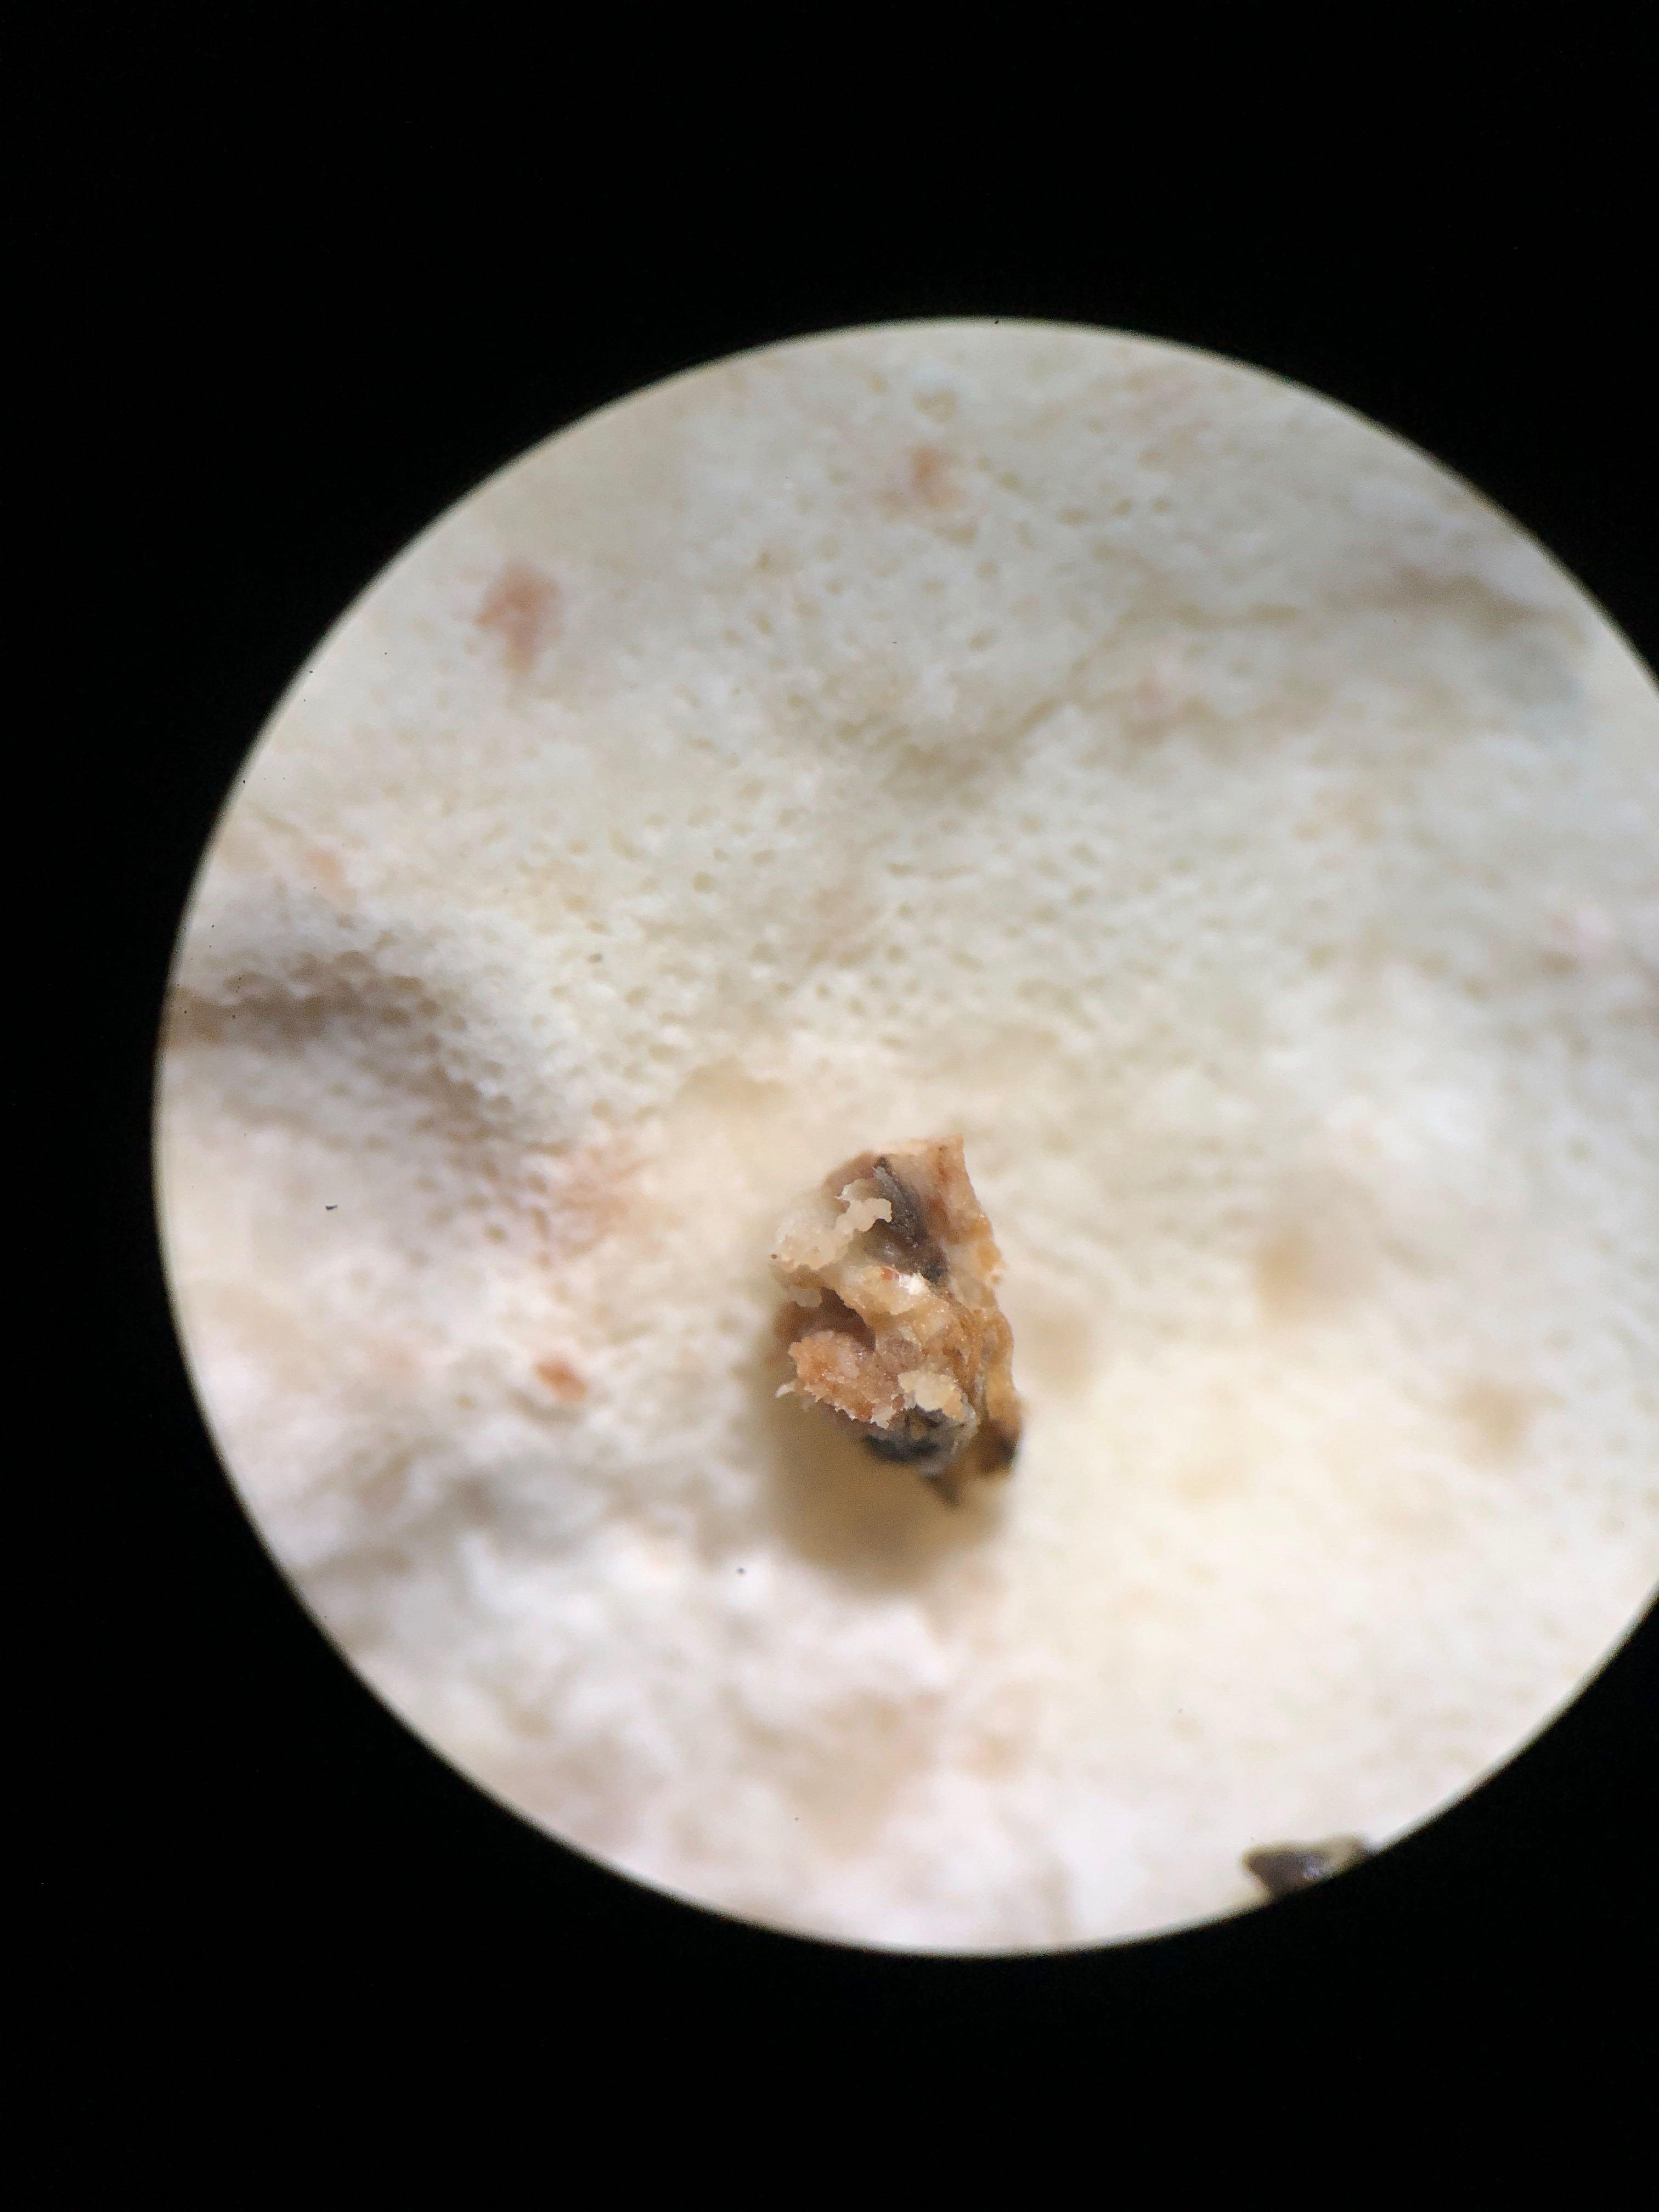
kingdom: Fungi
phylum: Basidiomycota
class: Agaricomycetes
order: Polyporales
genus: Calcipostia
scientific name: Calcipostia guttulata
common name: dråbe-kødporesvamp
